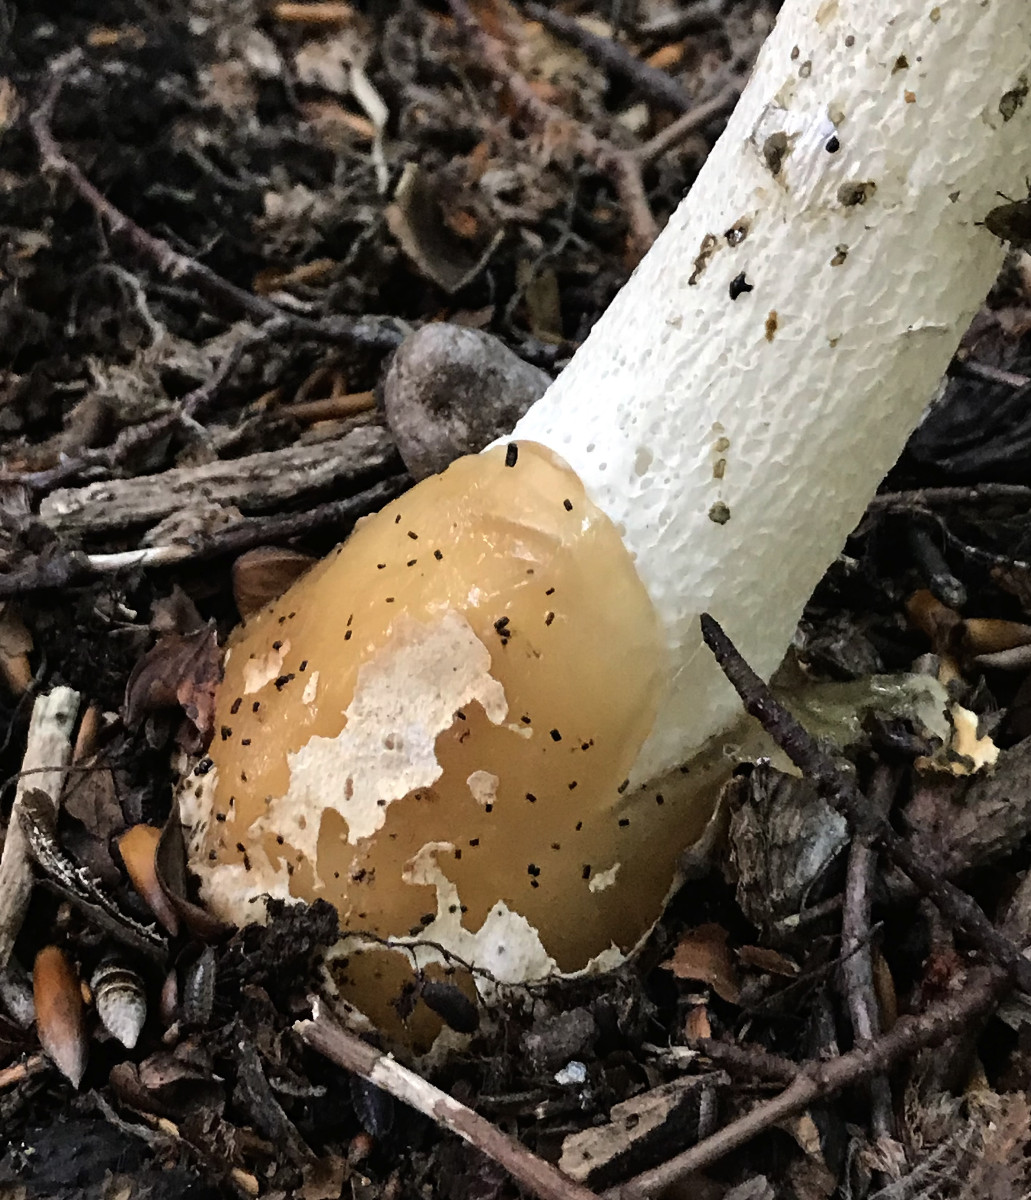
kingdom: Fungi
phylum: Basidiomycota
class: Agaricomycetes
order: Phallales
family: Phallaceae
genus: Phallus
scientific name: Phallus impudicus
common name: almindelig stinksvamp
